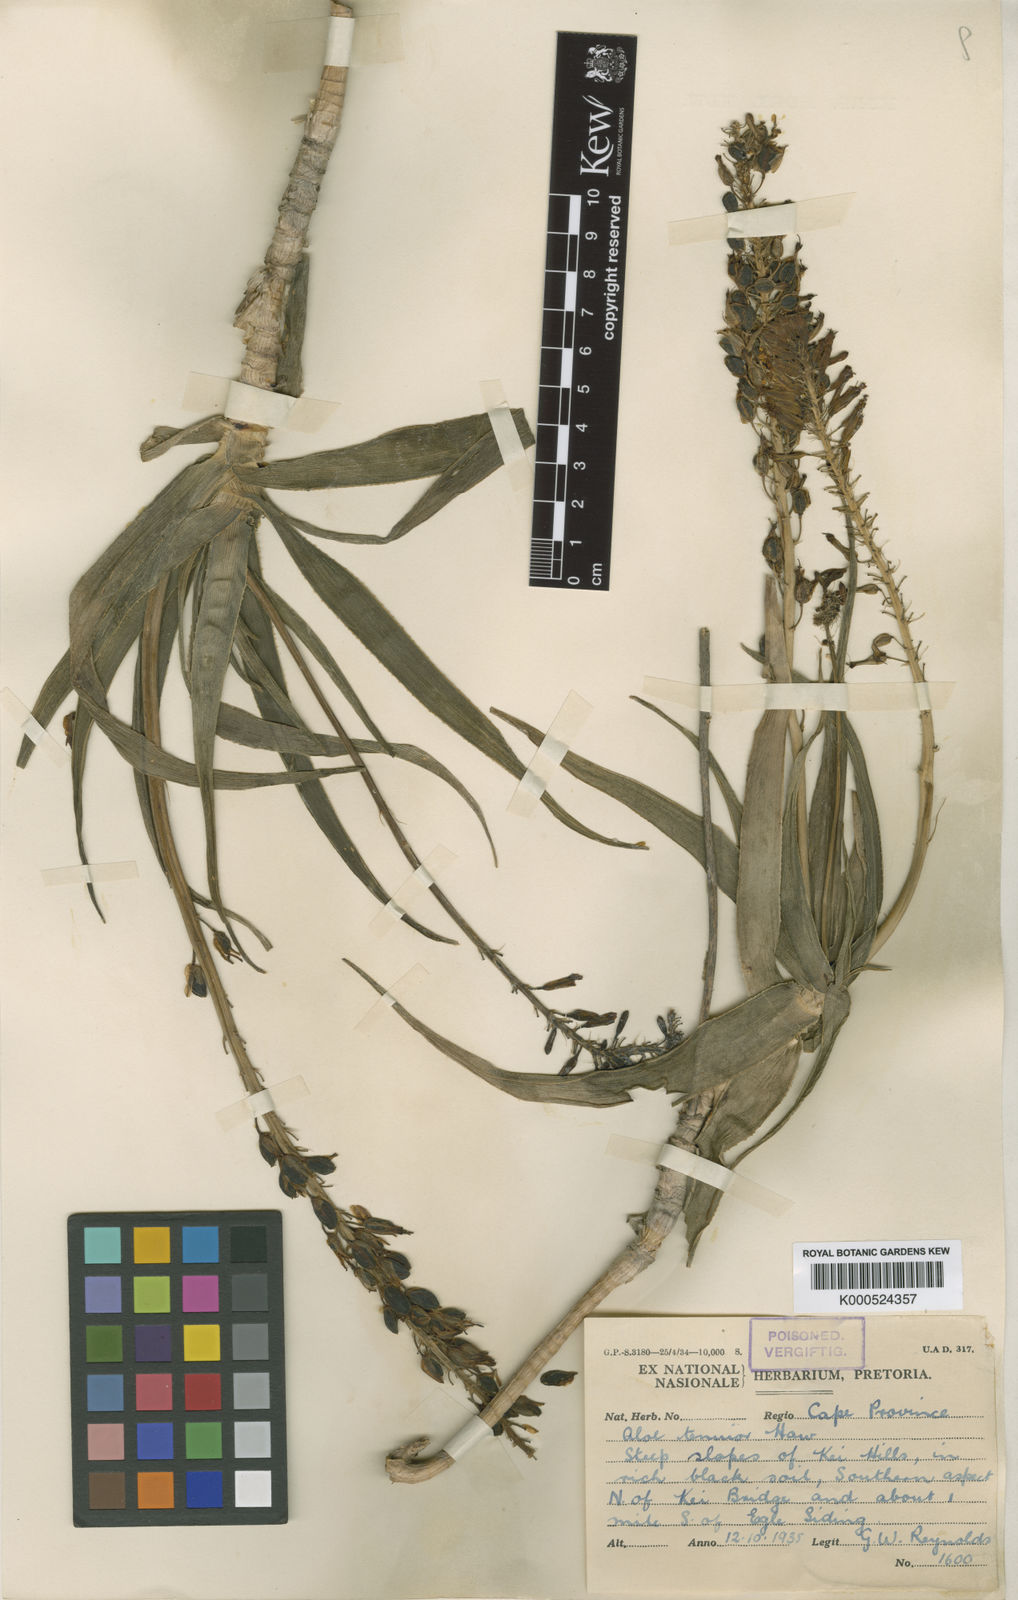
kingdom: Plantae
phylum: Tracheophyta
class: Liliopsida
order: Asparagales
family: Asphodelaceae
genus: Aloiampelos
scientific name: Aloiampelos tenuior
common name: Fence aloe
